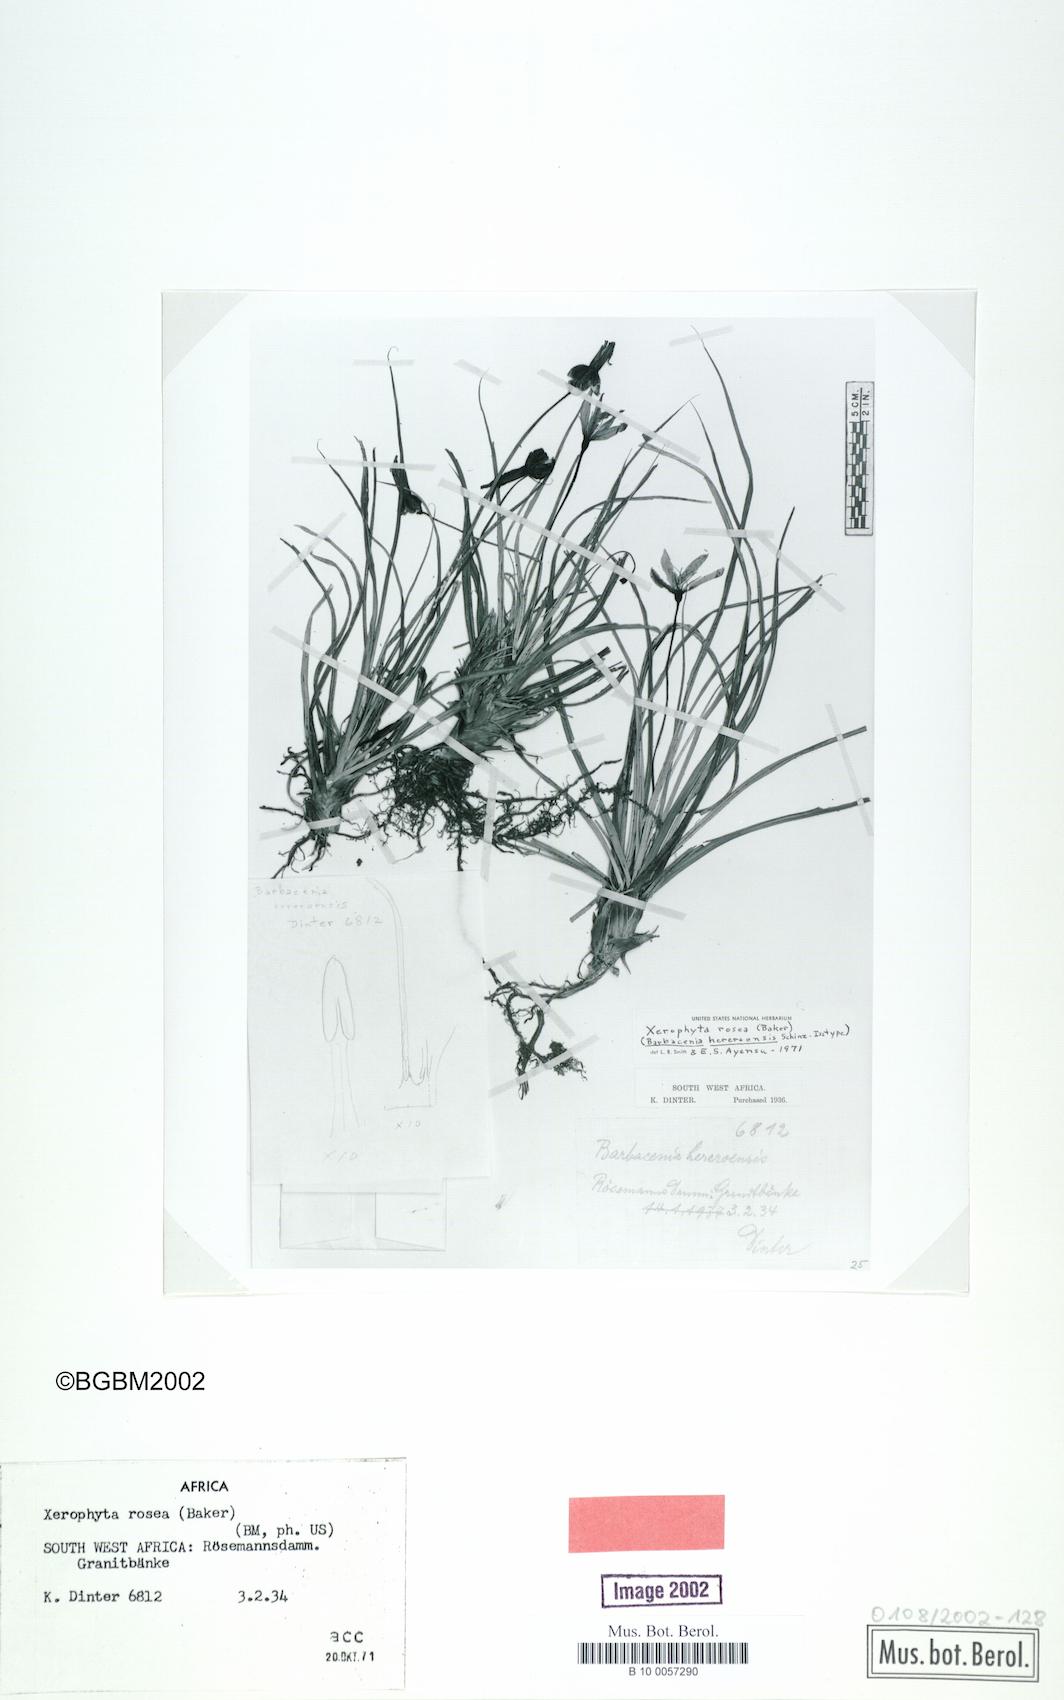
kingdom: Plantae
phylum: Tracheophyta
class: Liliopsida
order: Pandanales
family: Velloziaceae
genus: Xerophyta
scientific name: Xerophyta rosea
